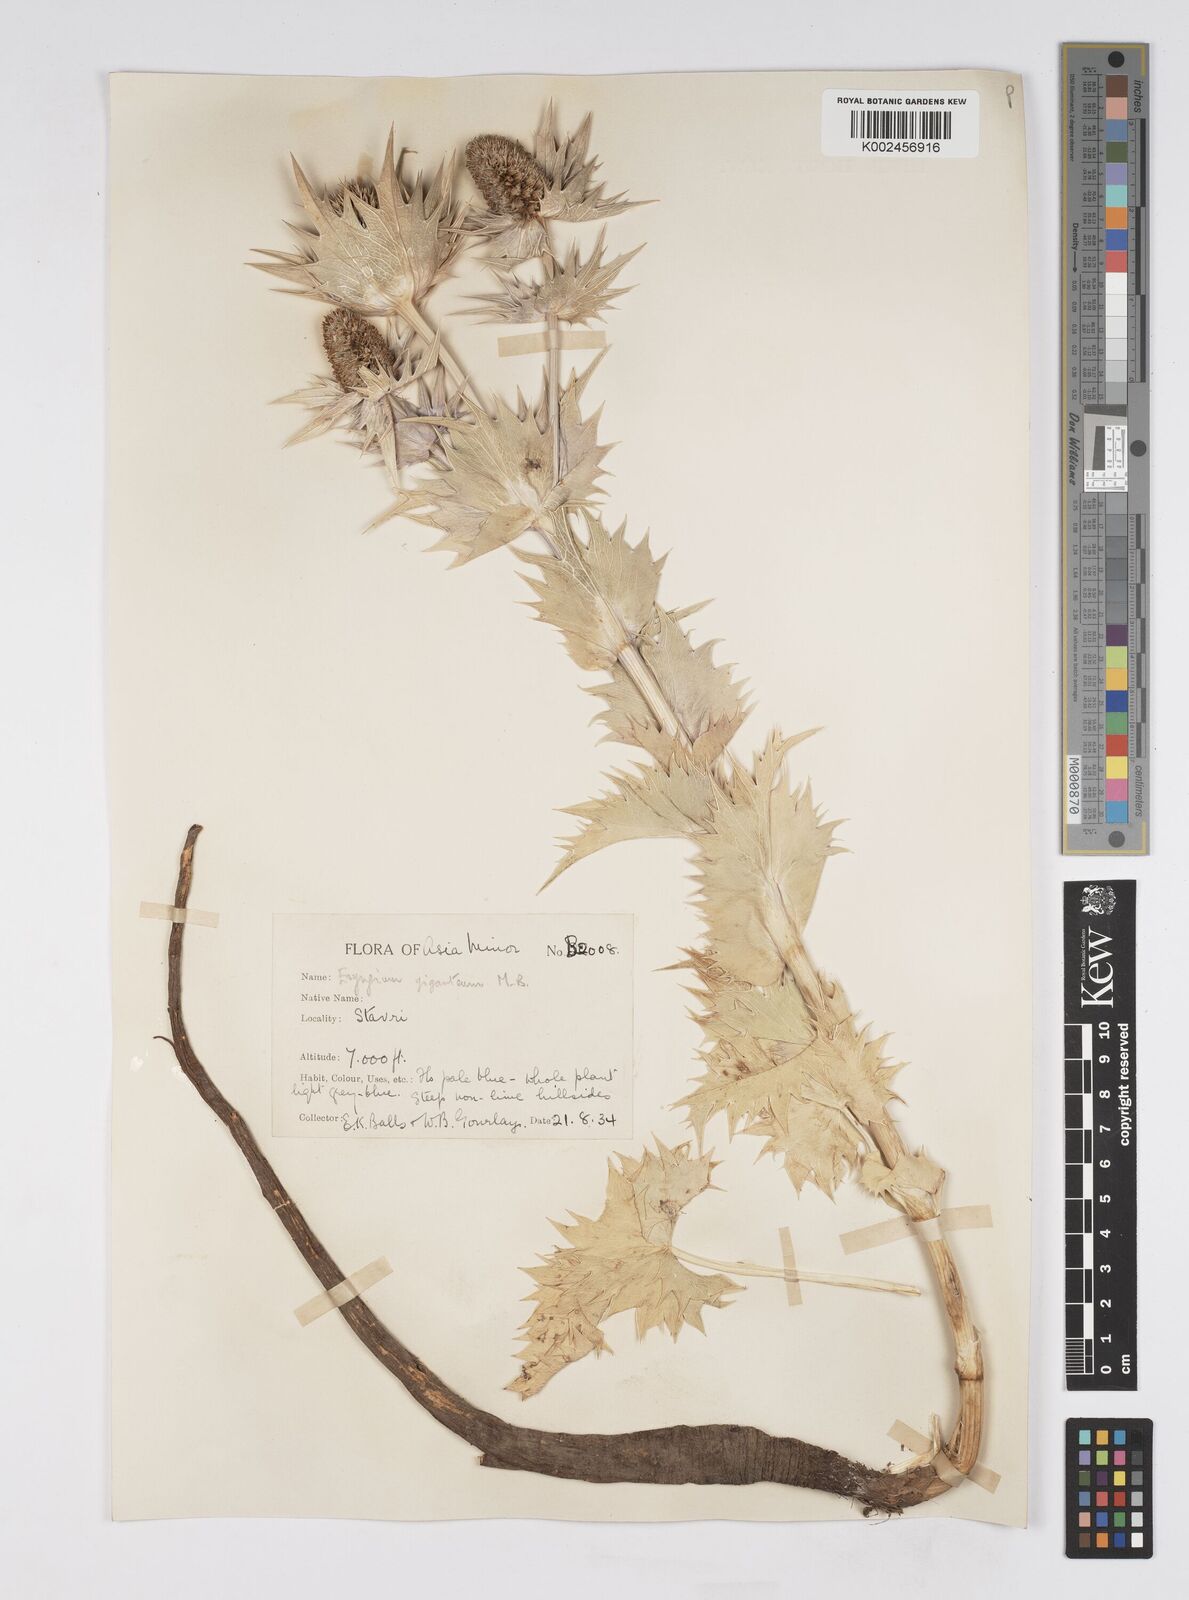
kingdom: Plantae
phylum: Tracheophyta
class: Magnoliopsida
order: Apiales
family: Apiaceae
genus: Eryngium
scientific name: Eryngium giganteum
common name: Tall eryngo
